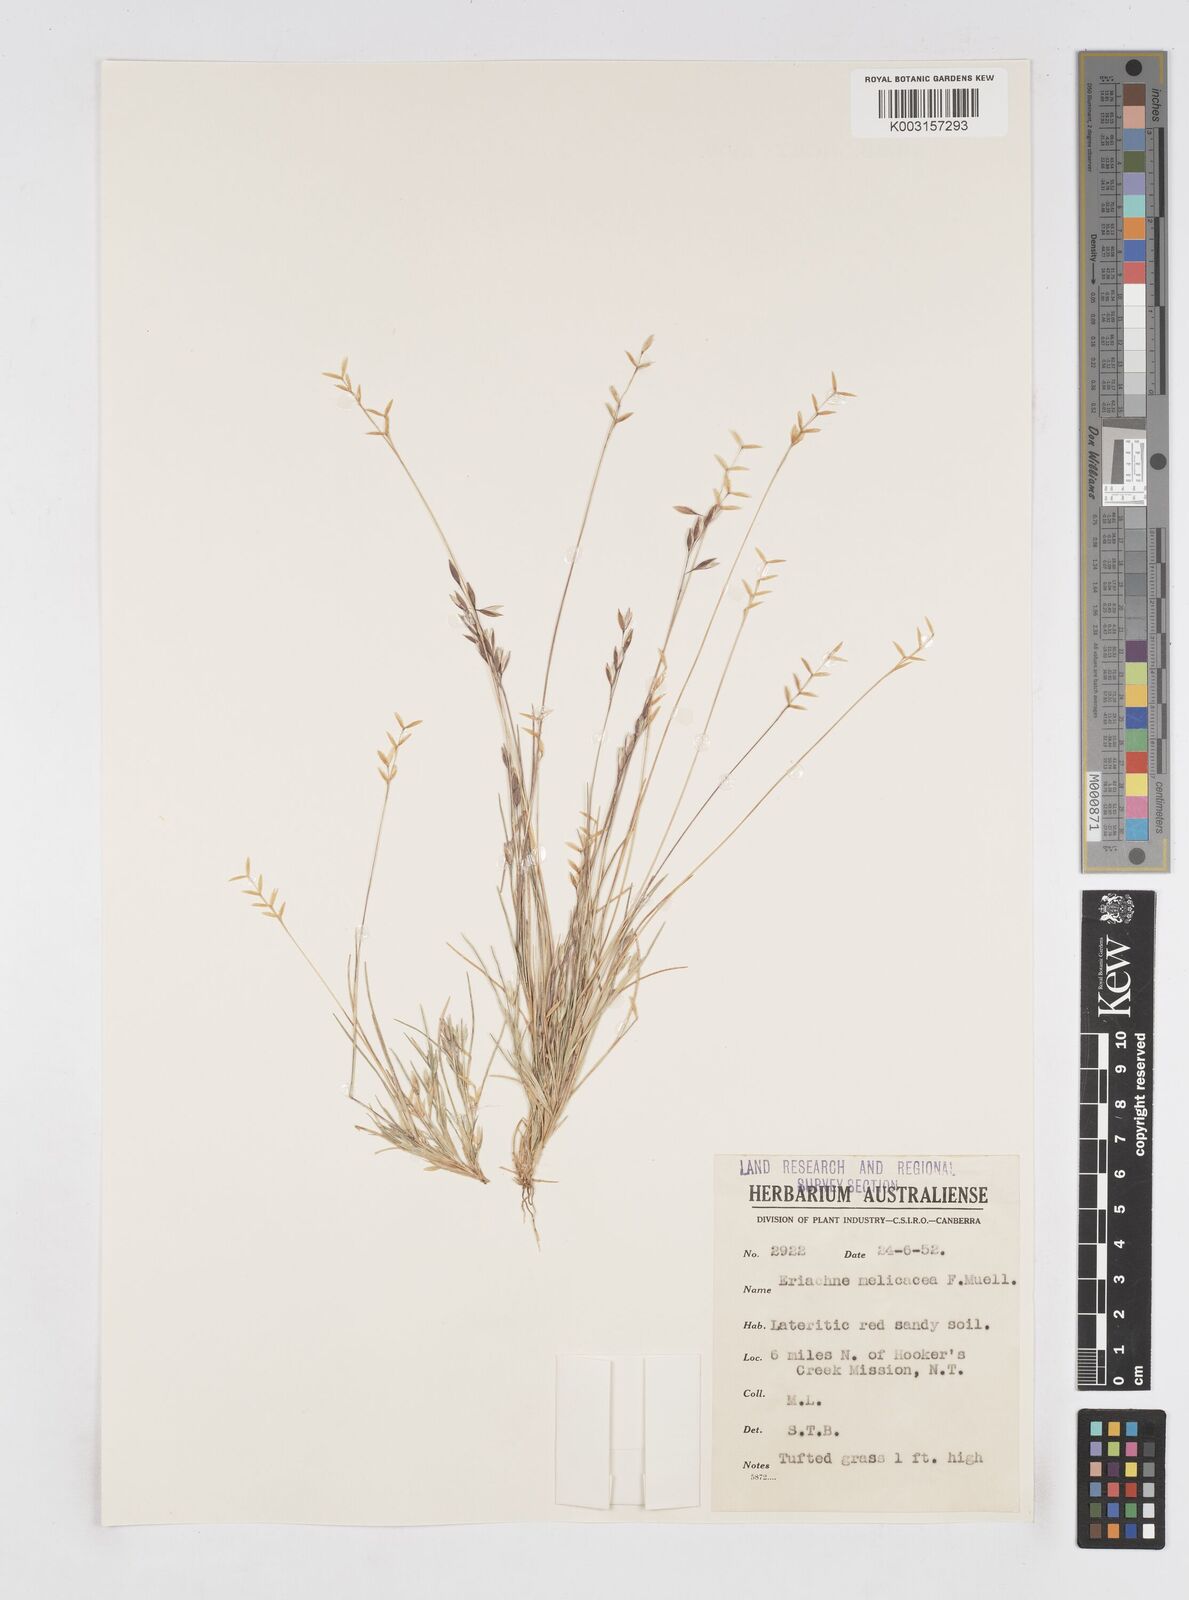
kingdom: Plantae
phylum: Tracheophyta
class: Liliopsida
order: Poales
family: Poaceae
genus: Eriachne
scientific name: Eriachne melicacea
